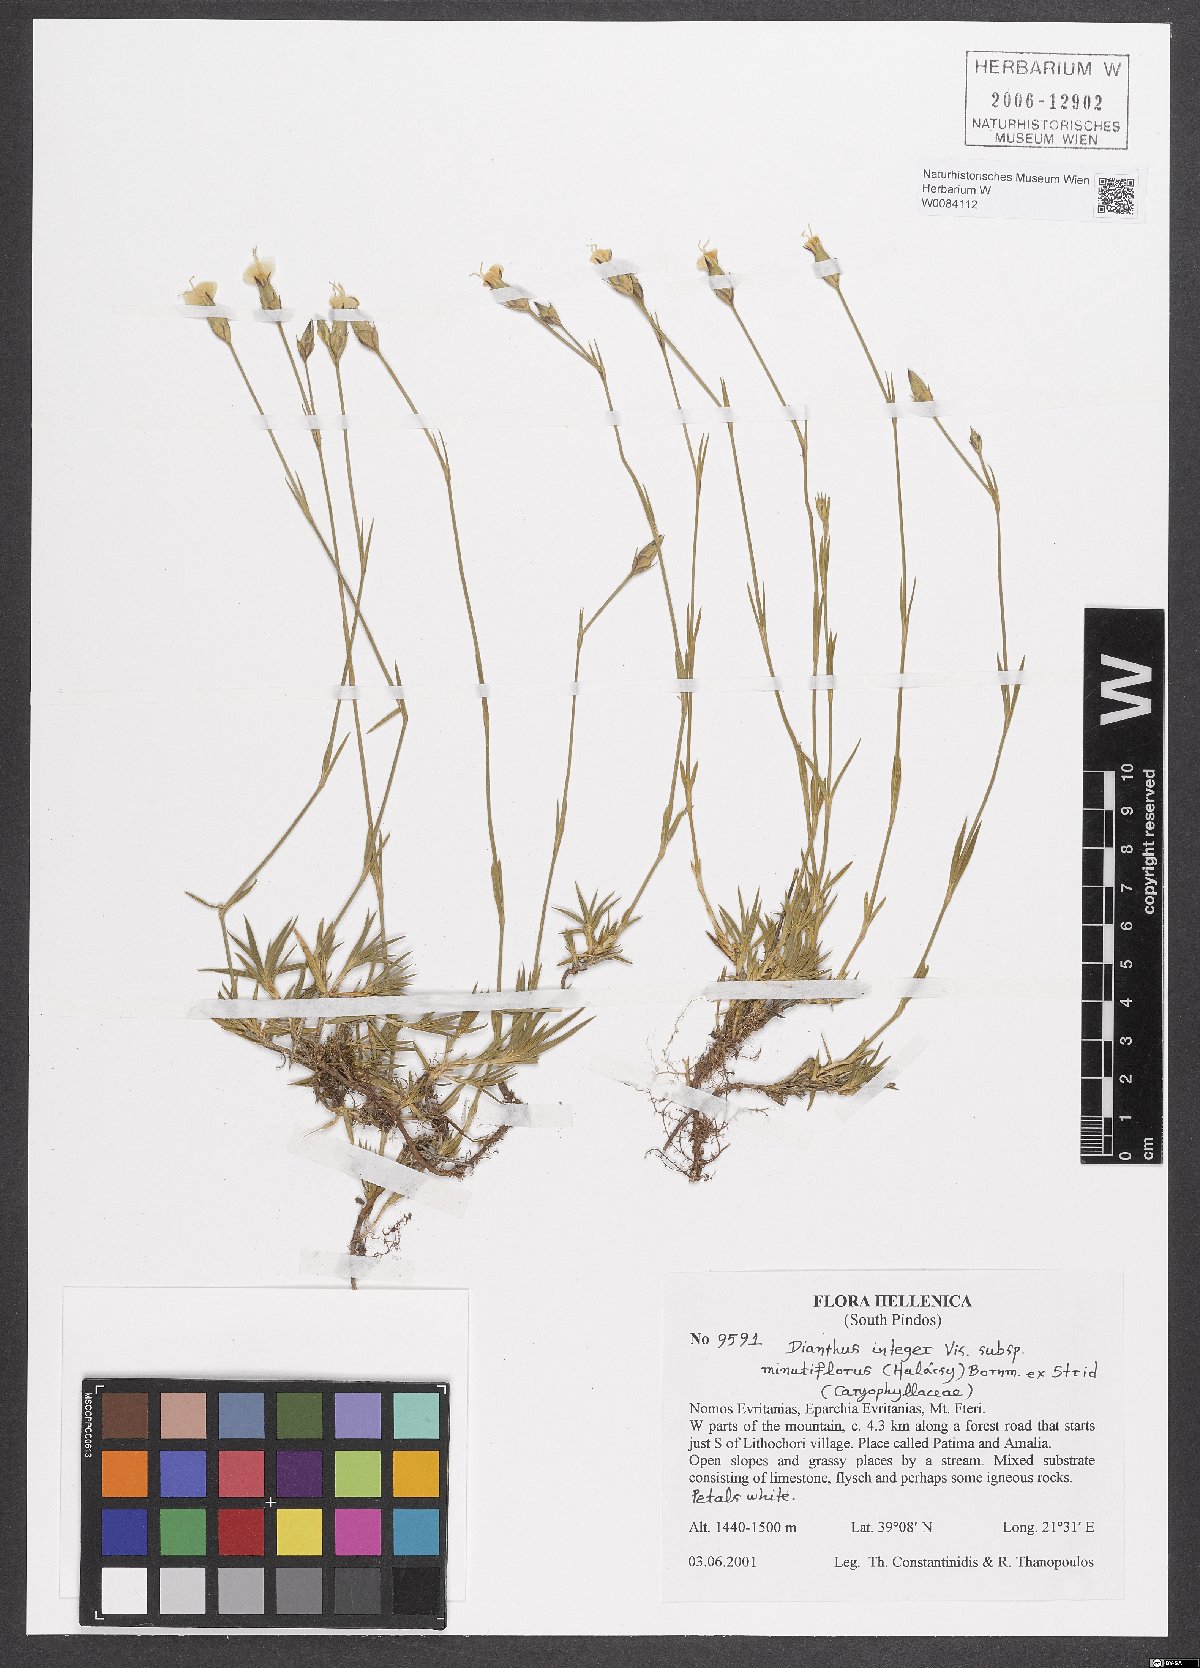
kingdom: Plantae
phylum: Tracheophyta
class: Magnoliopsida
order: Caryophyllales
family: Caryophyllaceae
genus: Dianthus
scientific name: Dianthus integer
